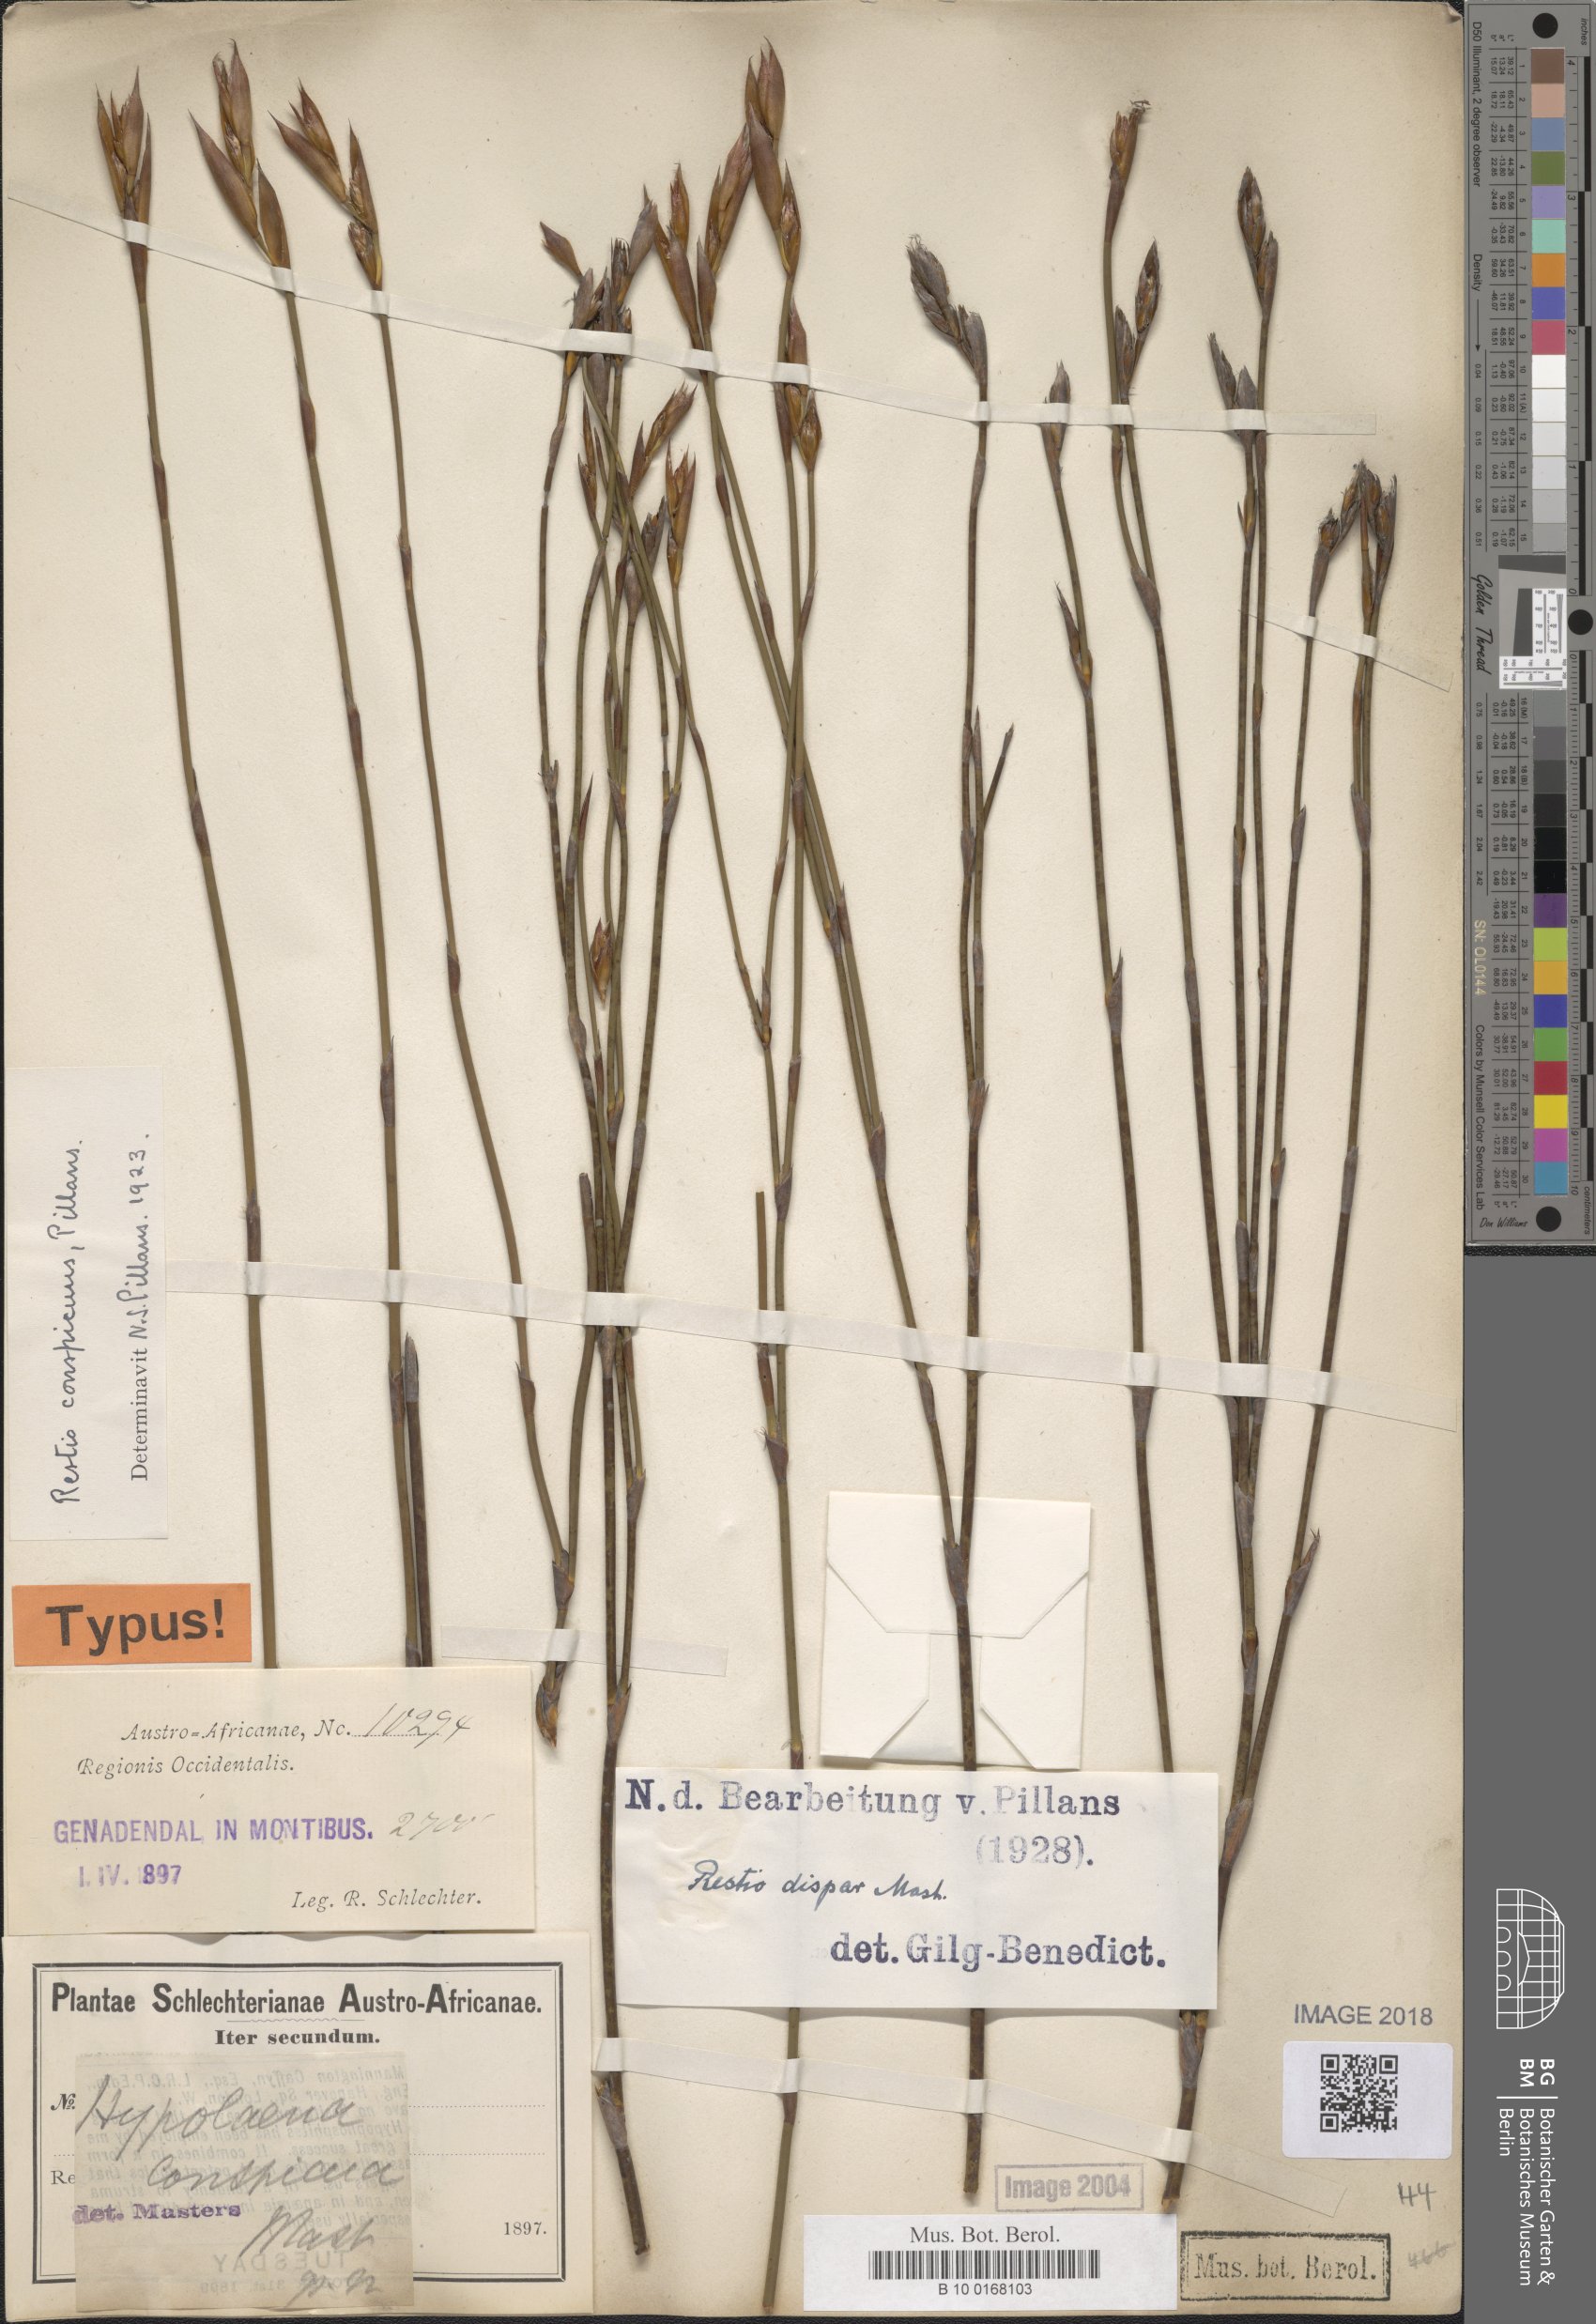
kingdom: Plantae
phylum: Tracheophyta
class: Liliopsida
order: Poales
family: Restionaceae
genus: Restio
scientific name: Restio dispar
